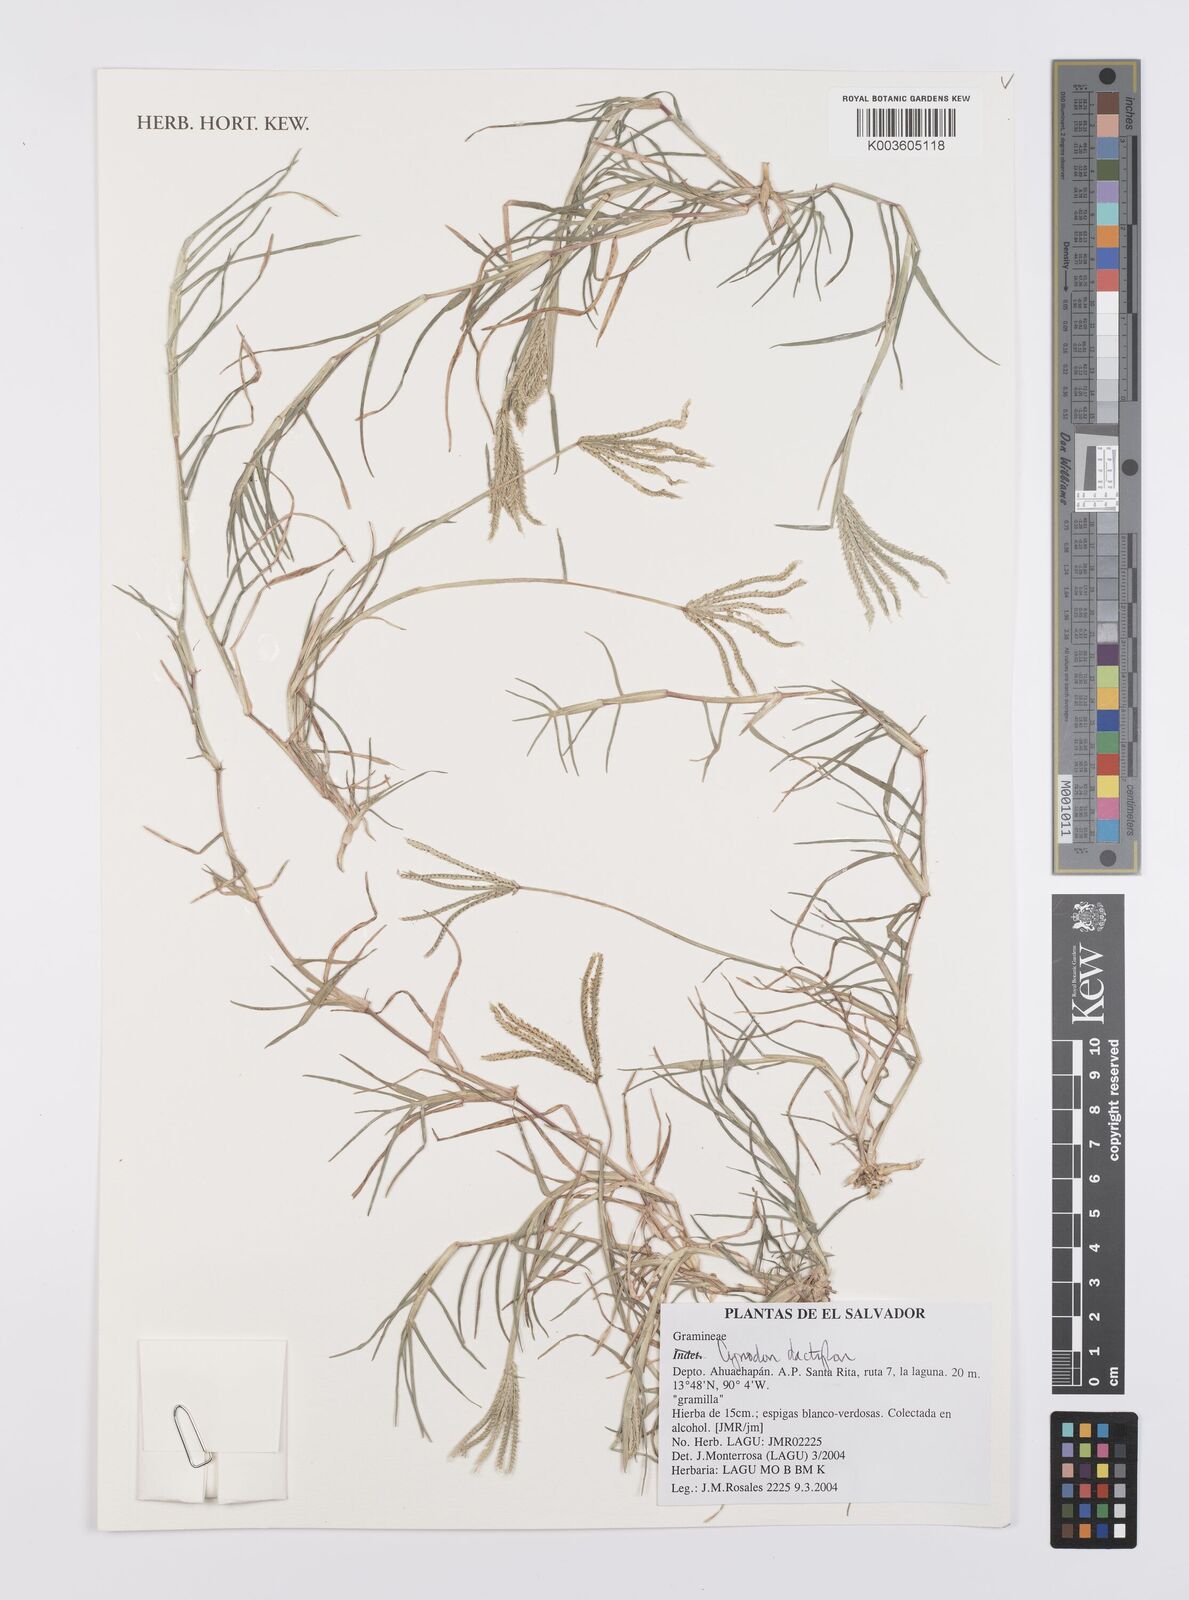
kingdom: Plantae
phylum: Tracheophyta
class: Liliopsida
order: Poales
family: Poaceae
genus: Cynodon
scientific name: Cynodon dactylon
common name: Bermuda grass
